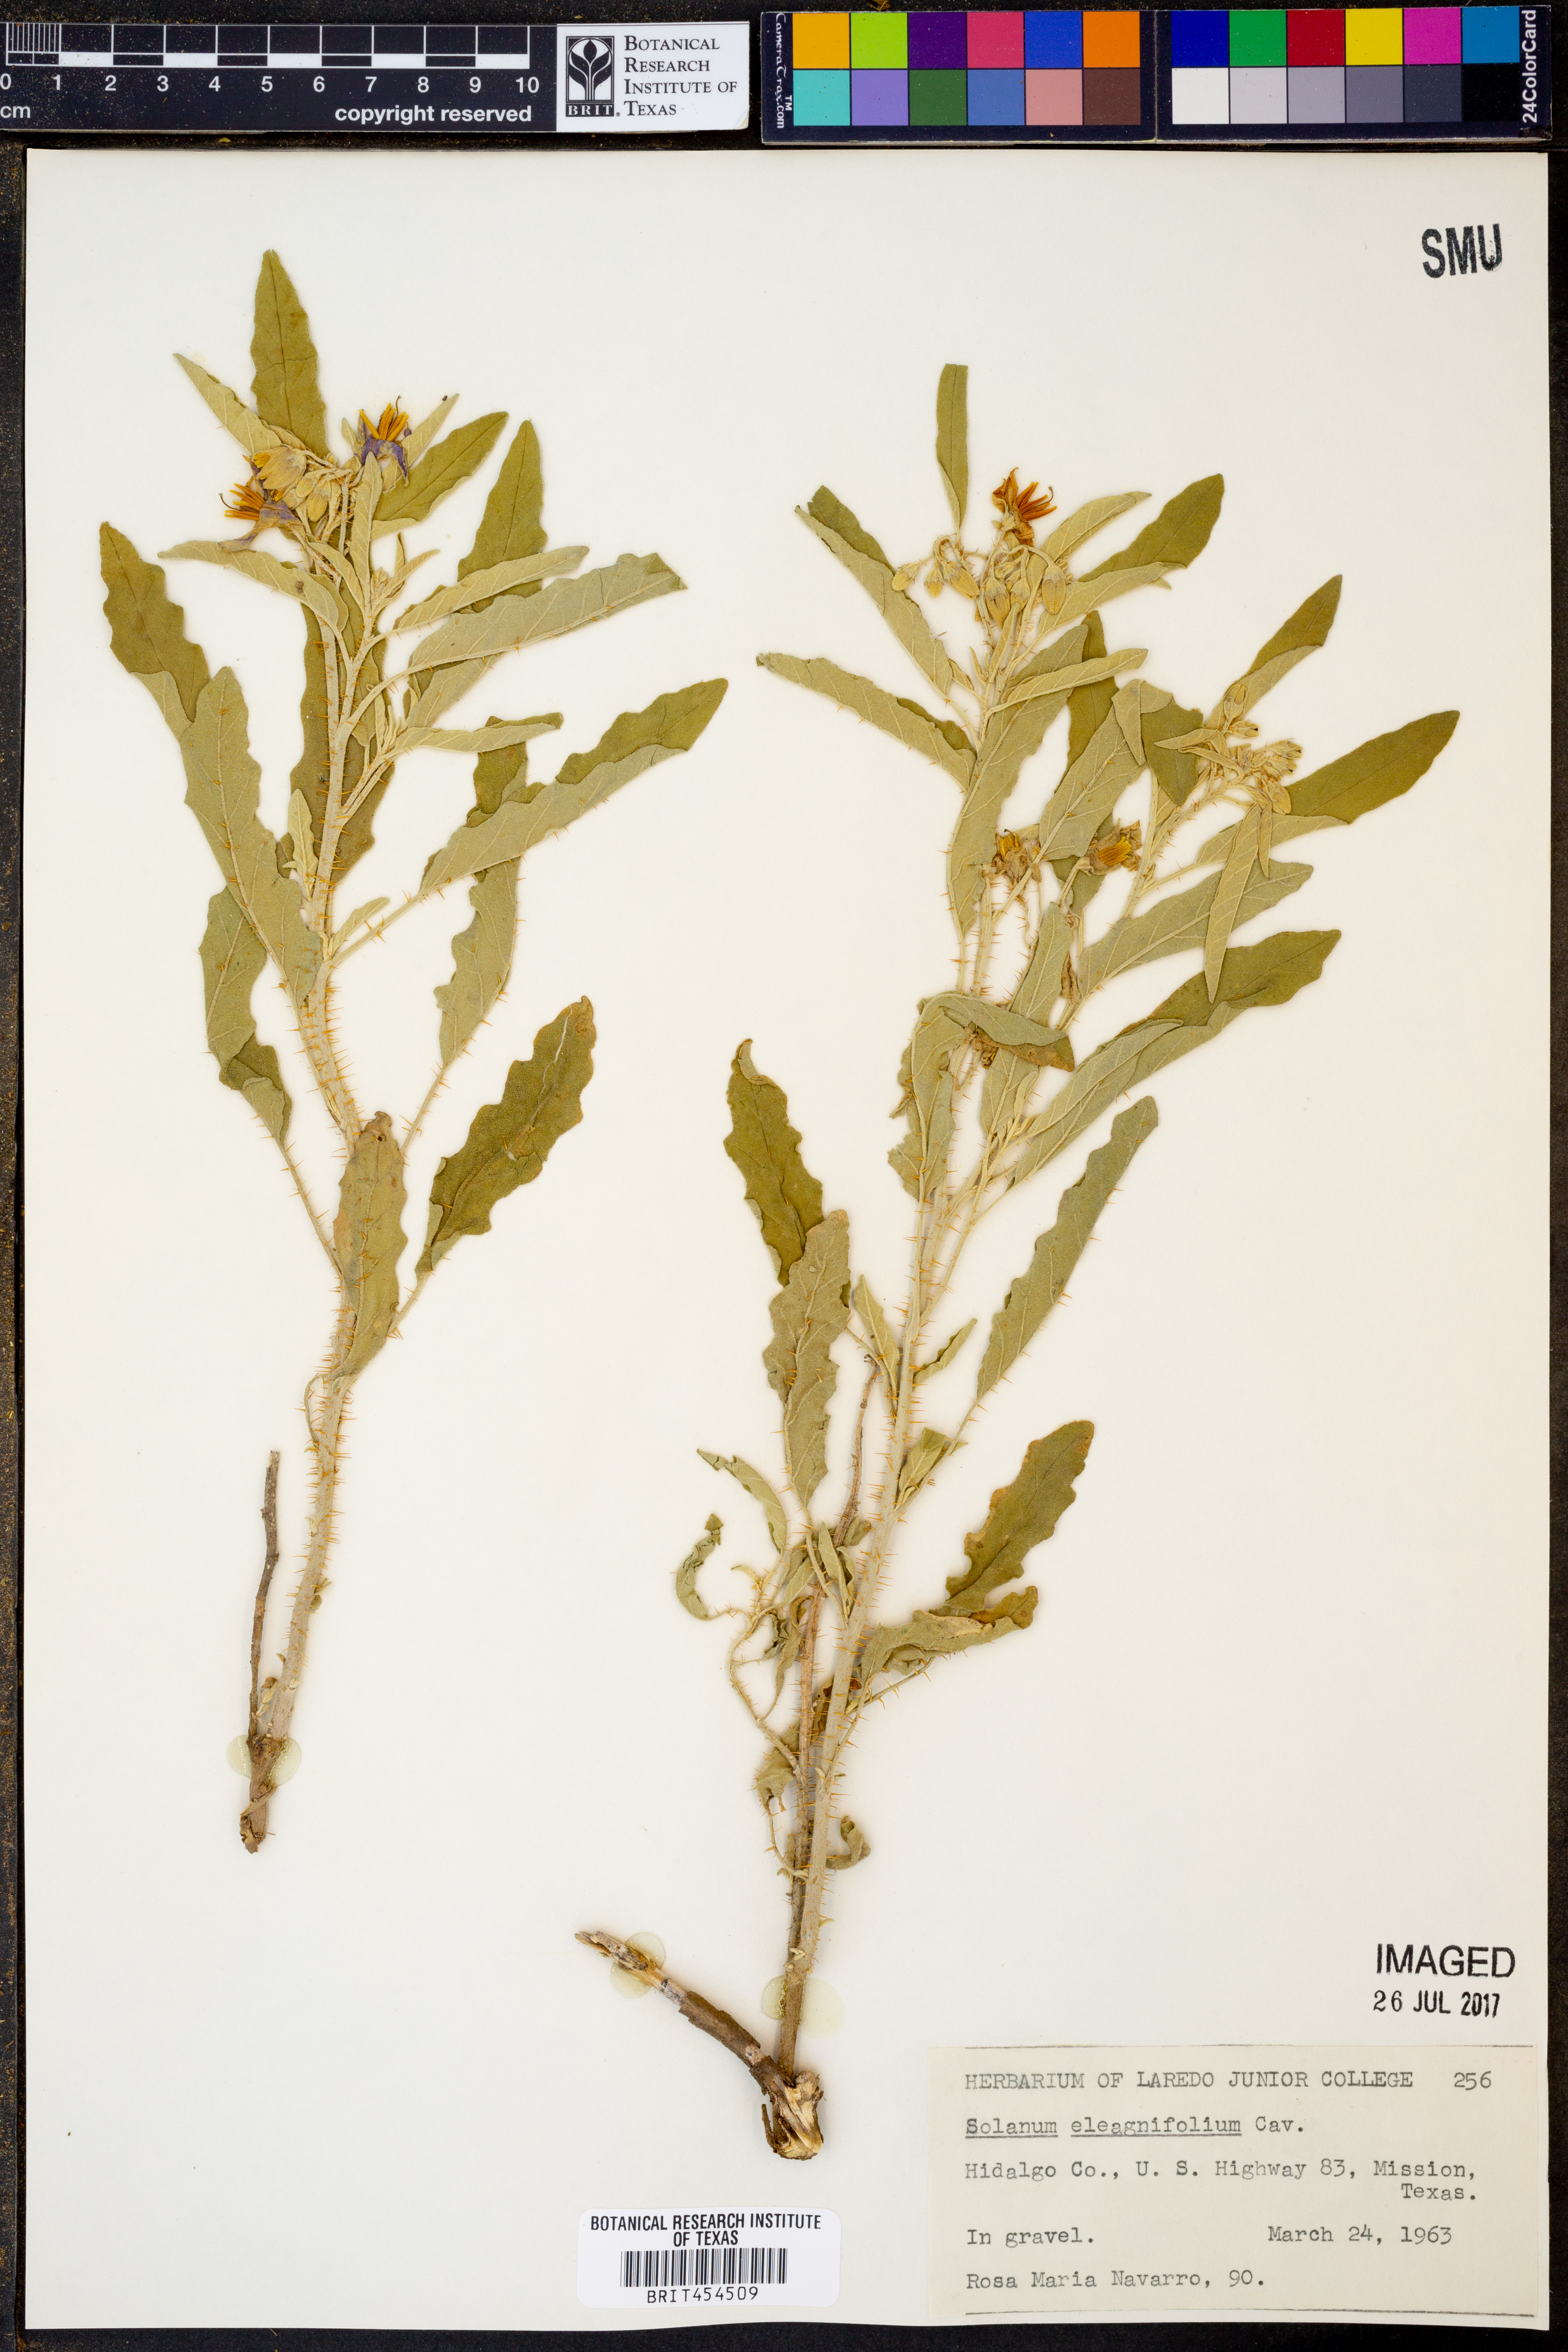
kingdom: Plantae
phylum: Tracheophyta
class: Magnoliopsida
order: Solanales
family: Solanaceae
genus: Solanum
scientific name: Solanum elaeagnifolium
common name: Silverleaf nightshade
